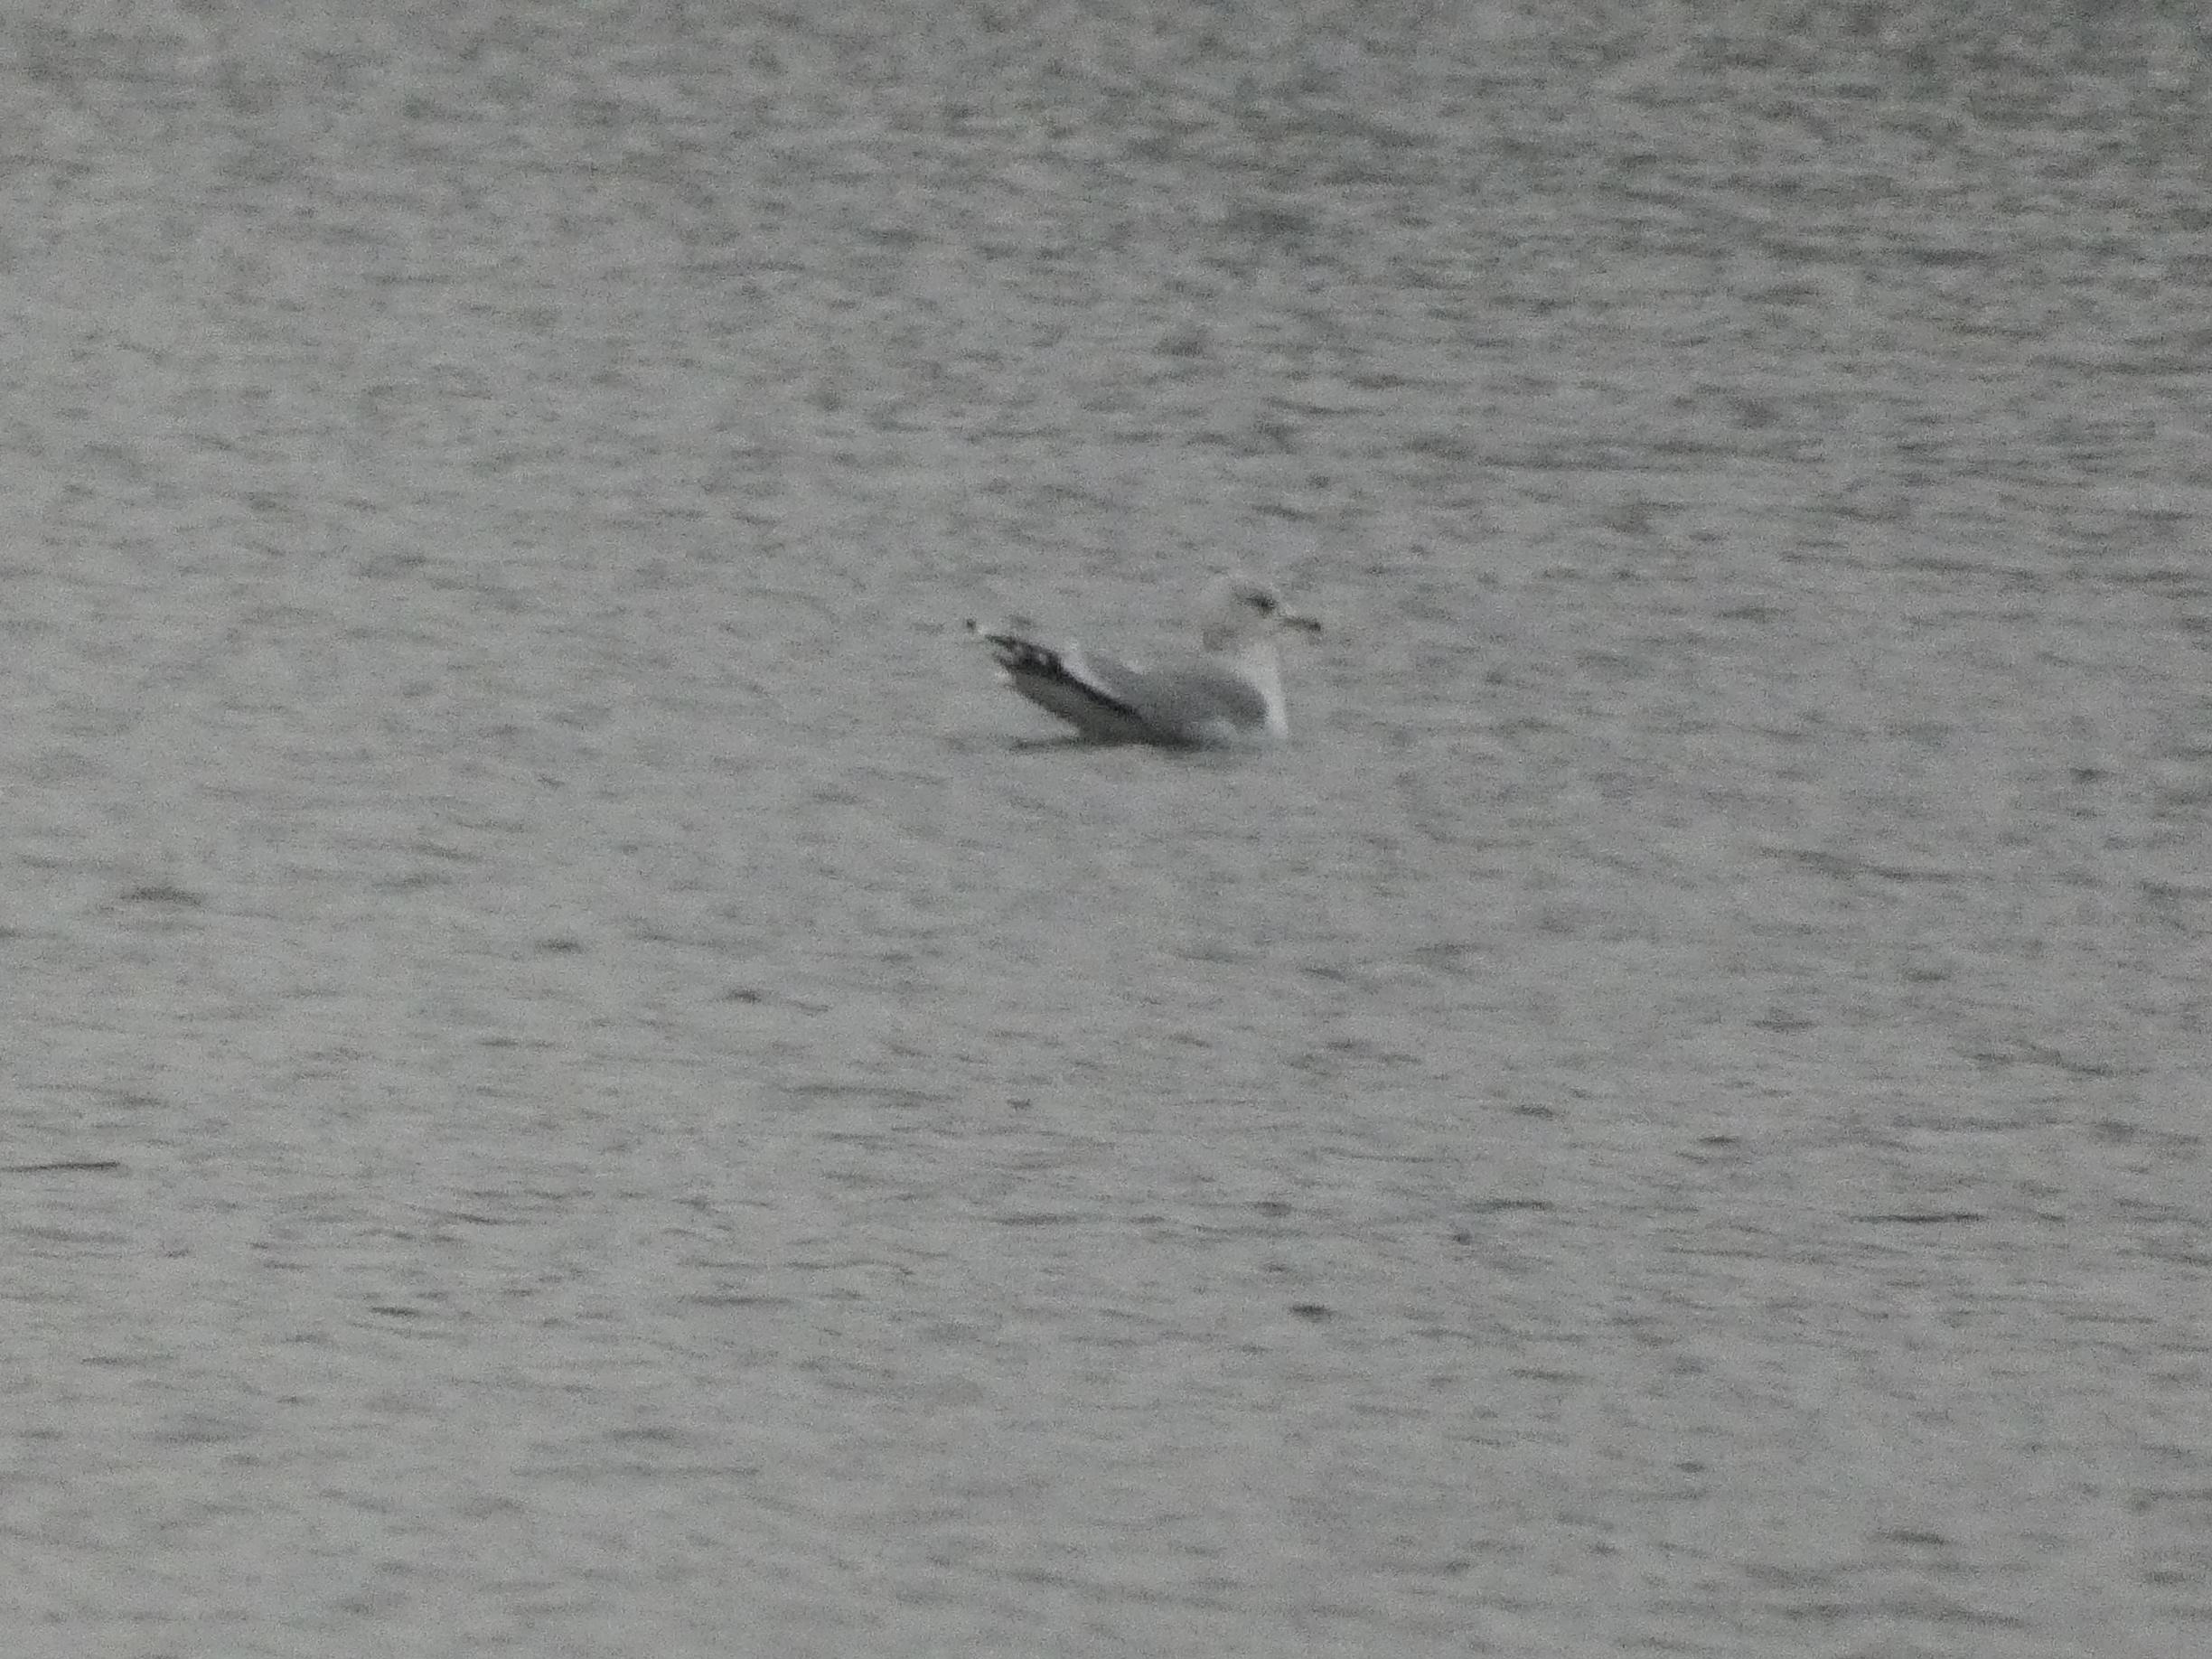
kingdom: Animalia
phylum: Chordata
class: Aves
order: Charadriiformes
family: Laridae
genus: Larus
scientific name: Larus canus
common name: Stormmåge
